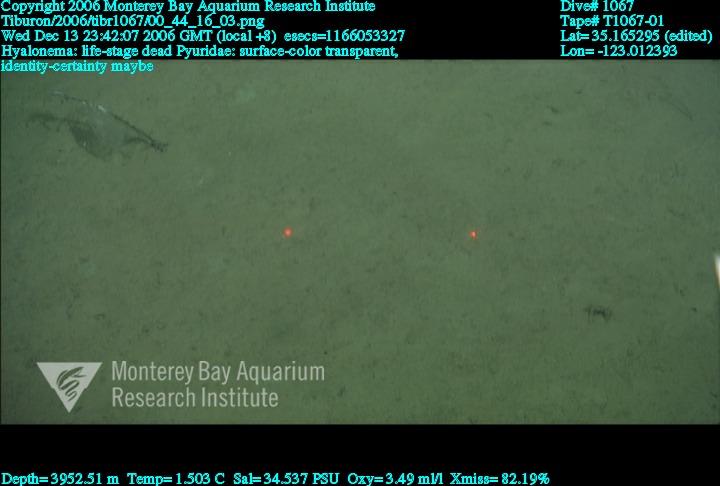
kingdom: Animalia
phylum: Porifera
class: Hexactinellida
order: Amphidiscosida
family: Hyalonematidae
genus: Hyalonema
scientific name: Hyalonema
